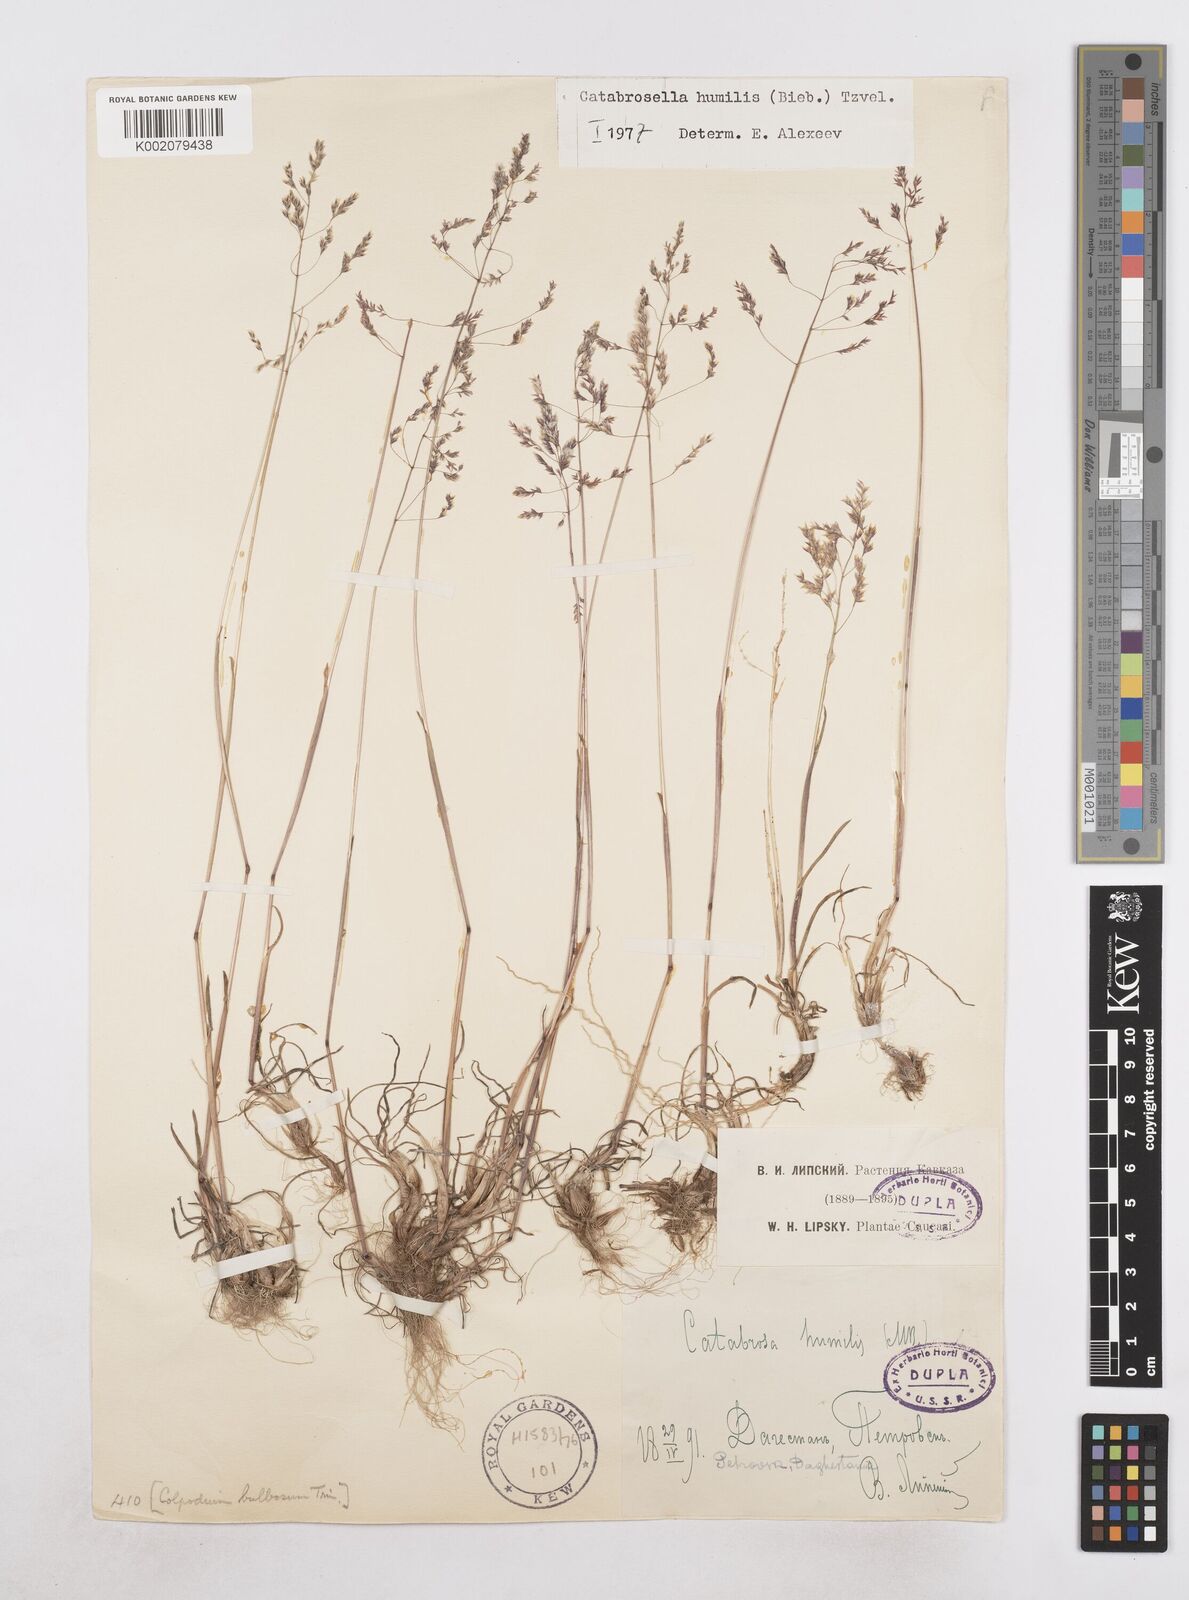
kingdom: Plantae
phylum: Tracheophyta
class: Liliopsida
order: Poales
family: Poaceae
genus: Catabrosella
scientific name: Catabrosella humilis
